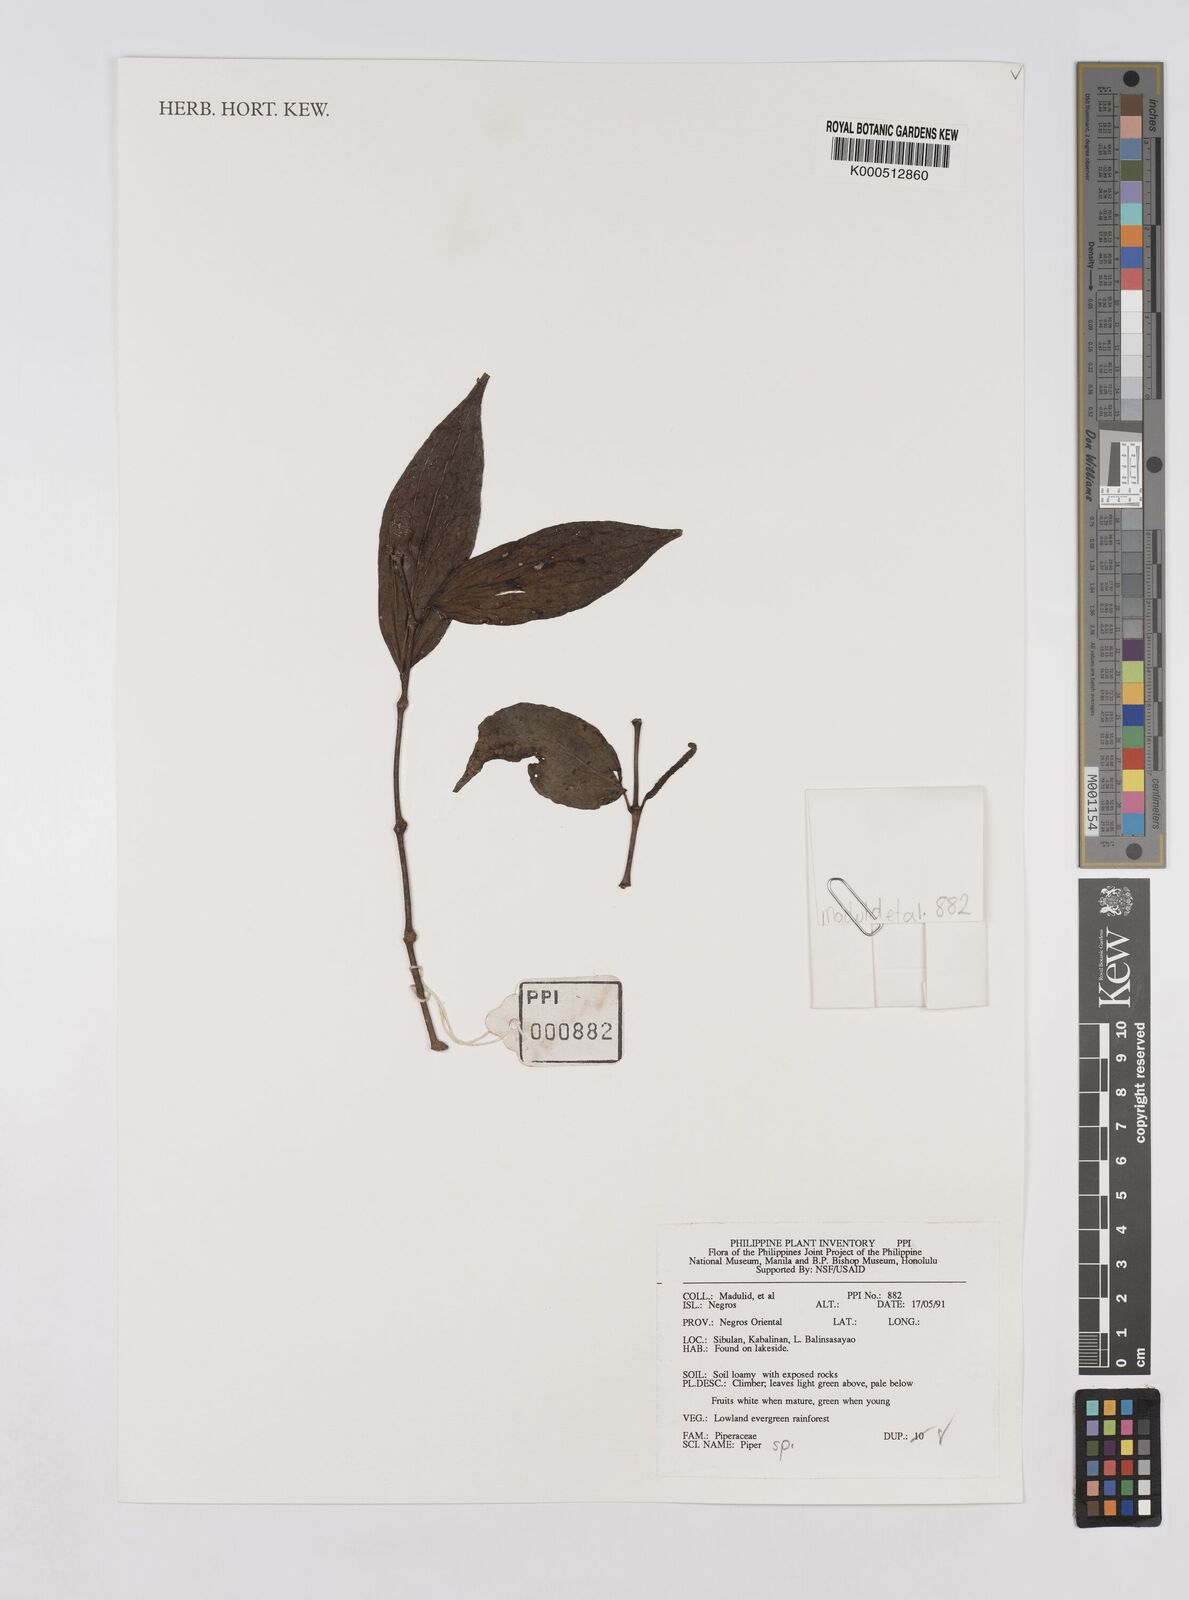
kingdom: Plantae
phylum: Tracheophyta
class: Magnoliopsida
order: Piperales
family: Piperaceae
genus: Piper
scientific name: Piper
